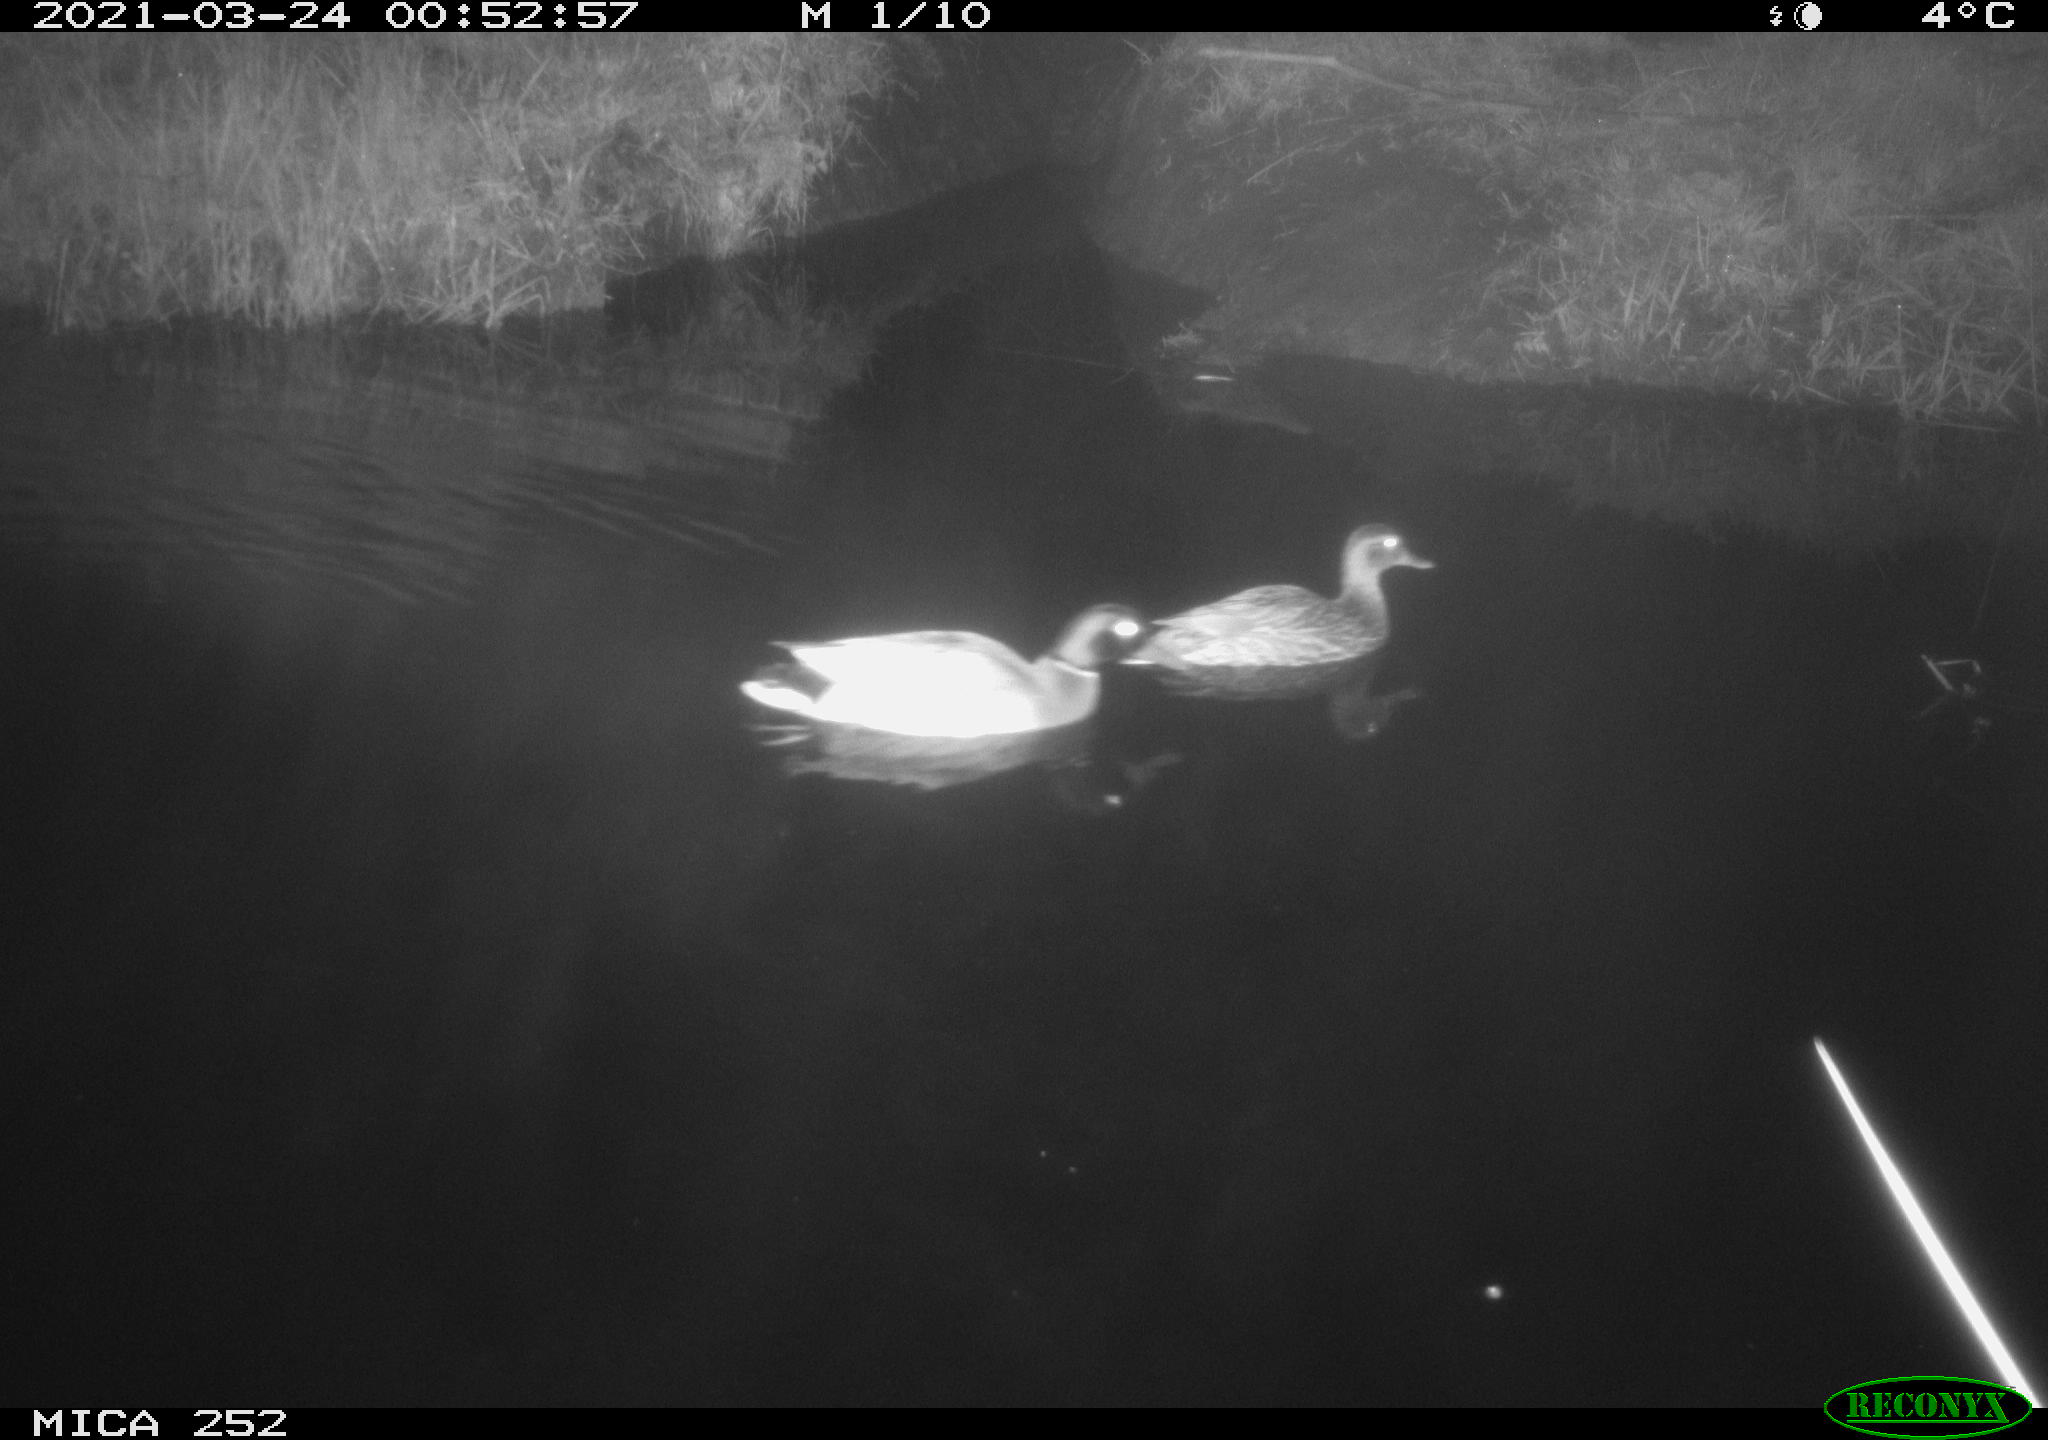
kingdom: Animalia
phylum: Chordata
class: Aves
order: Anseriformes
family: Anatidae
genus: Anas
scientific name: Anas platyrhynchos
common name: Mallard
